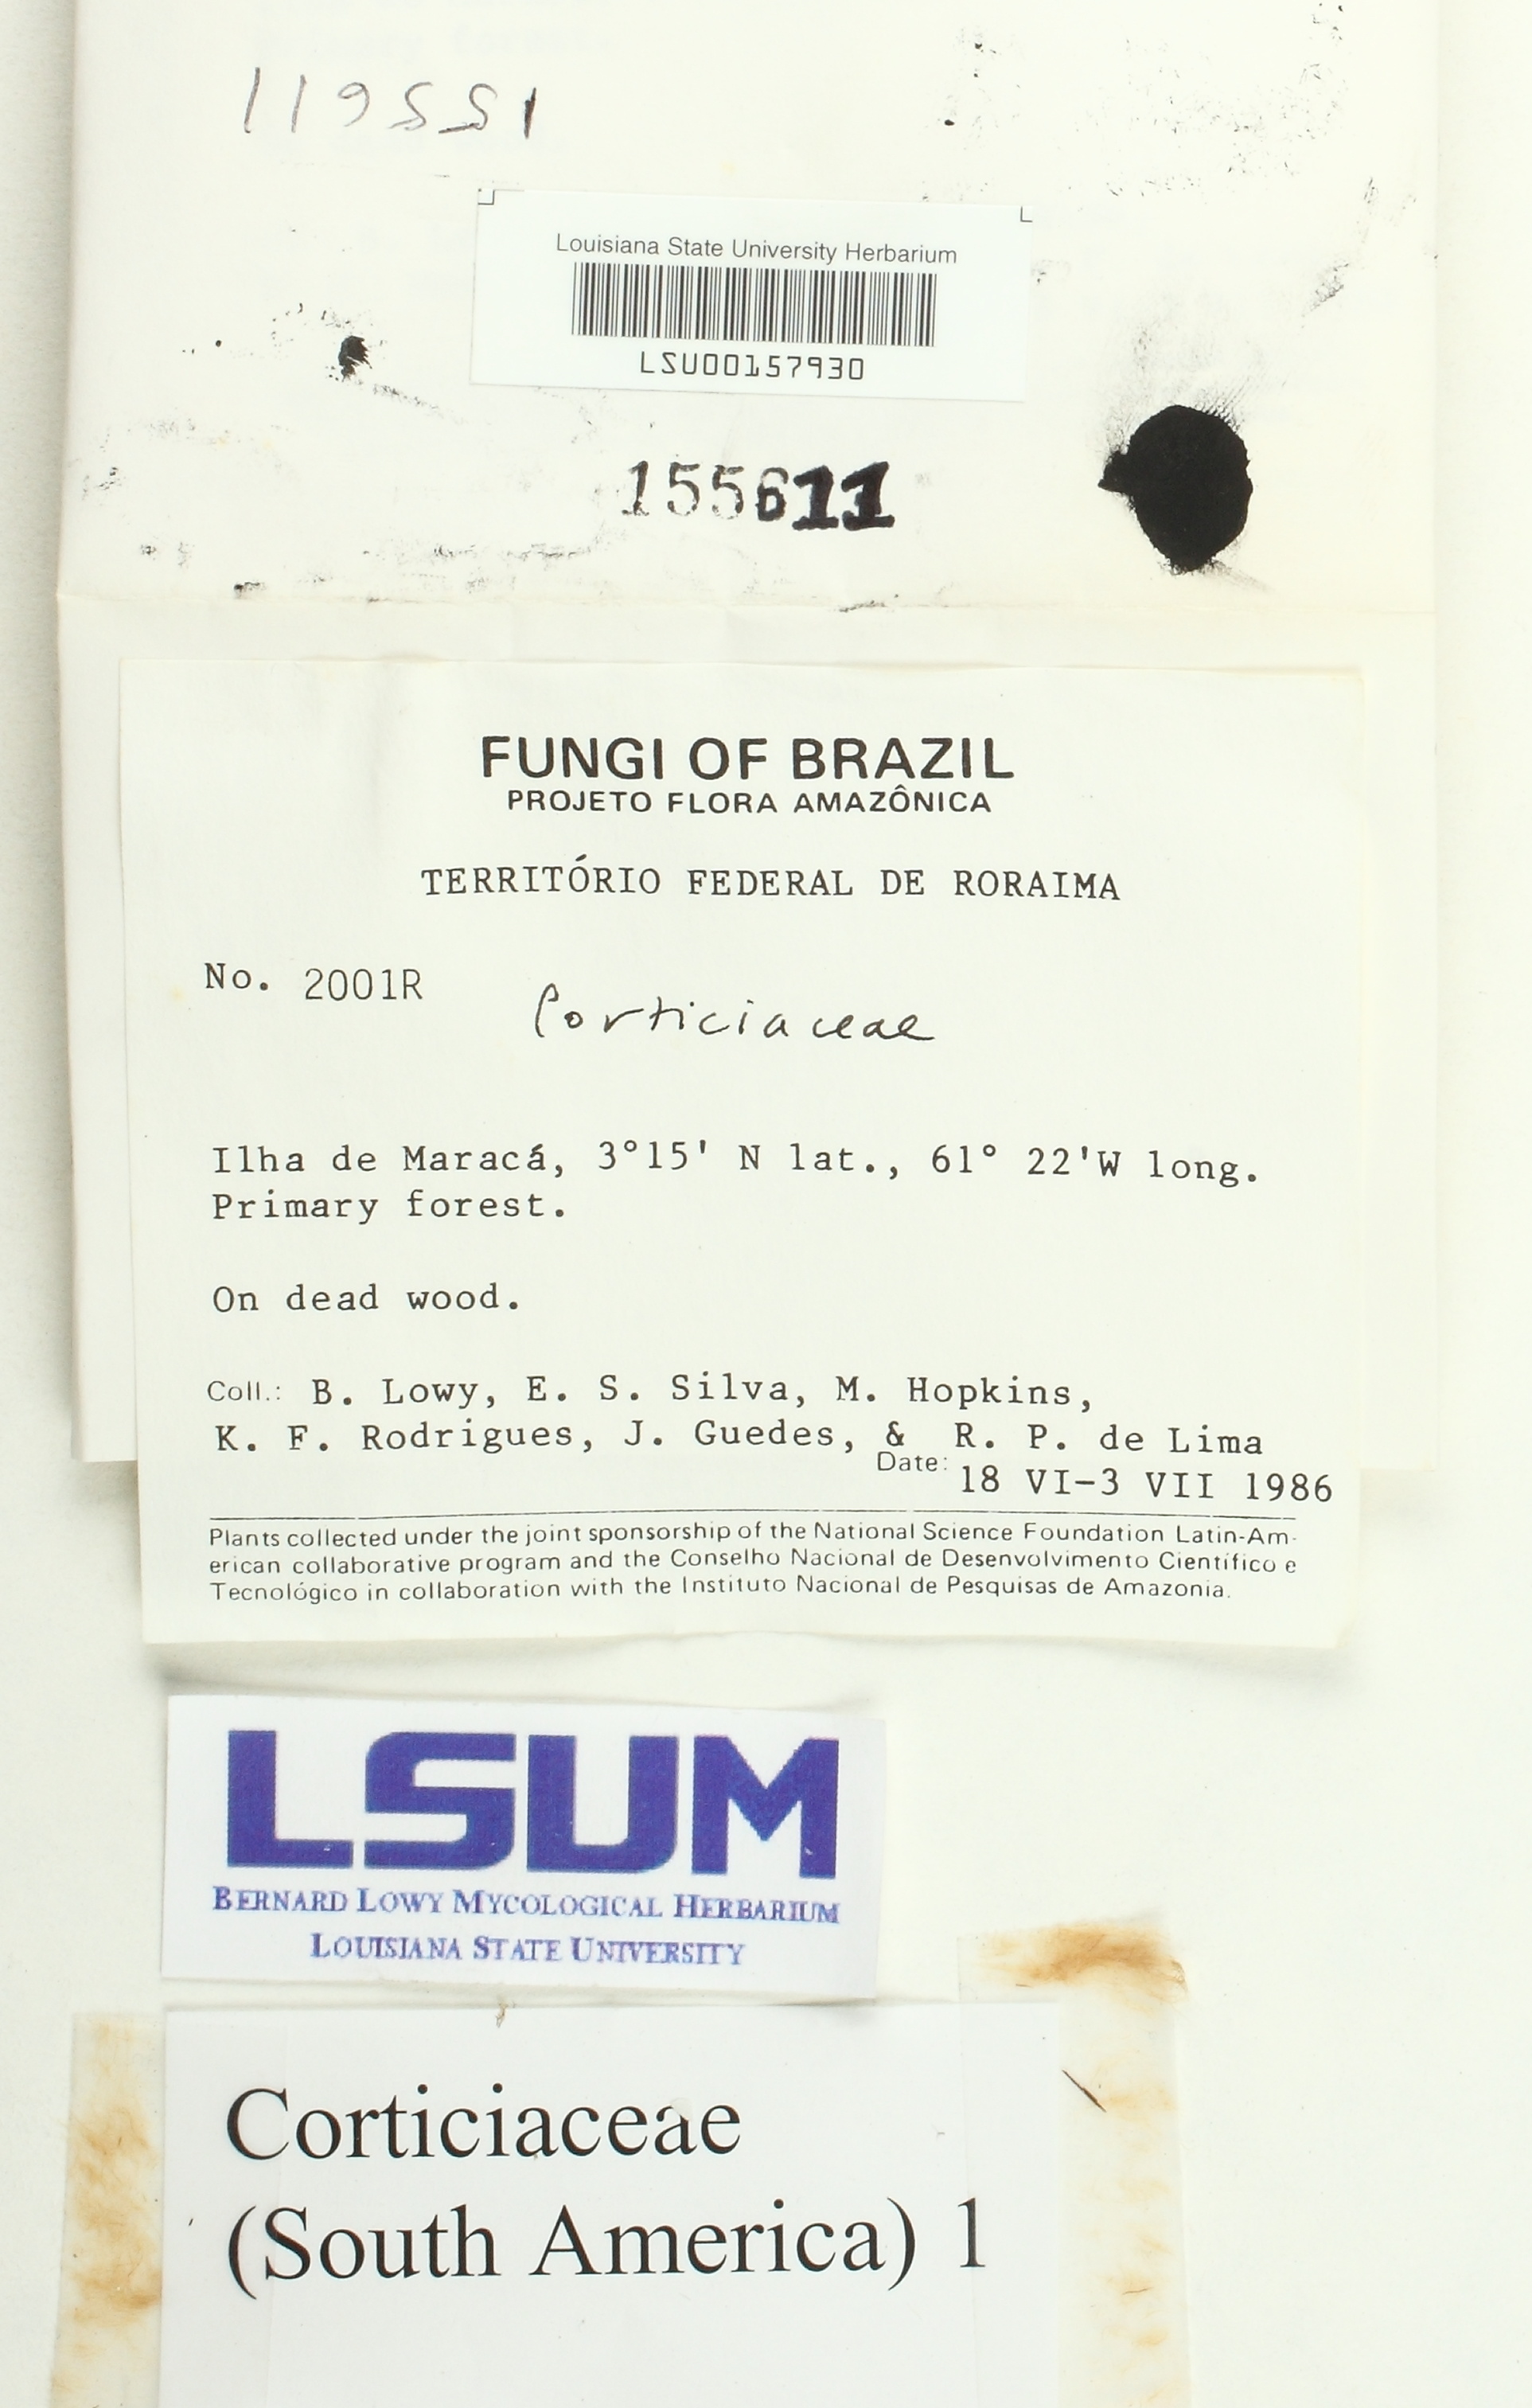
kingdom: Fungi
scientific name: Fungi
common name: Fungi
